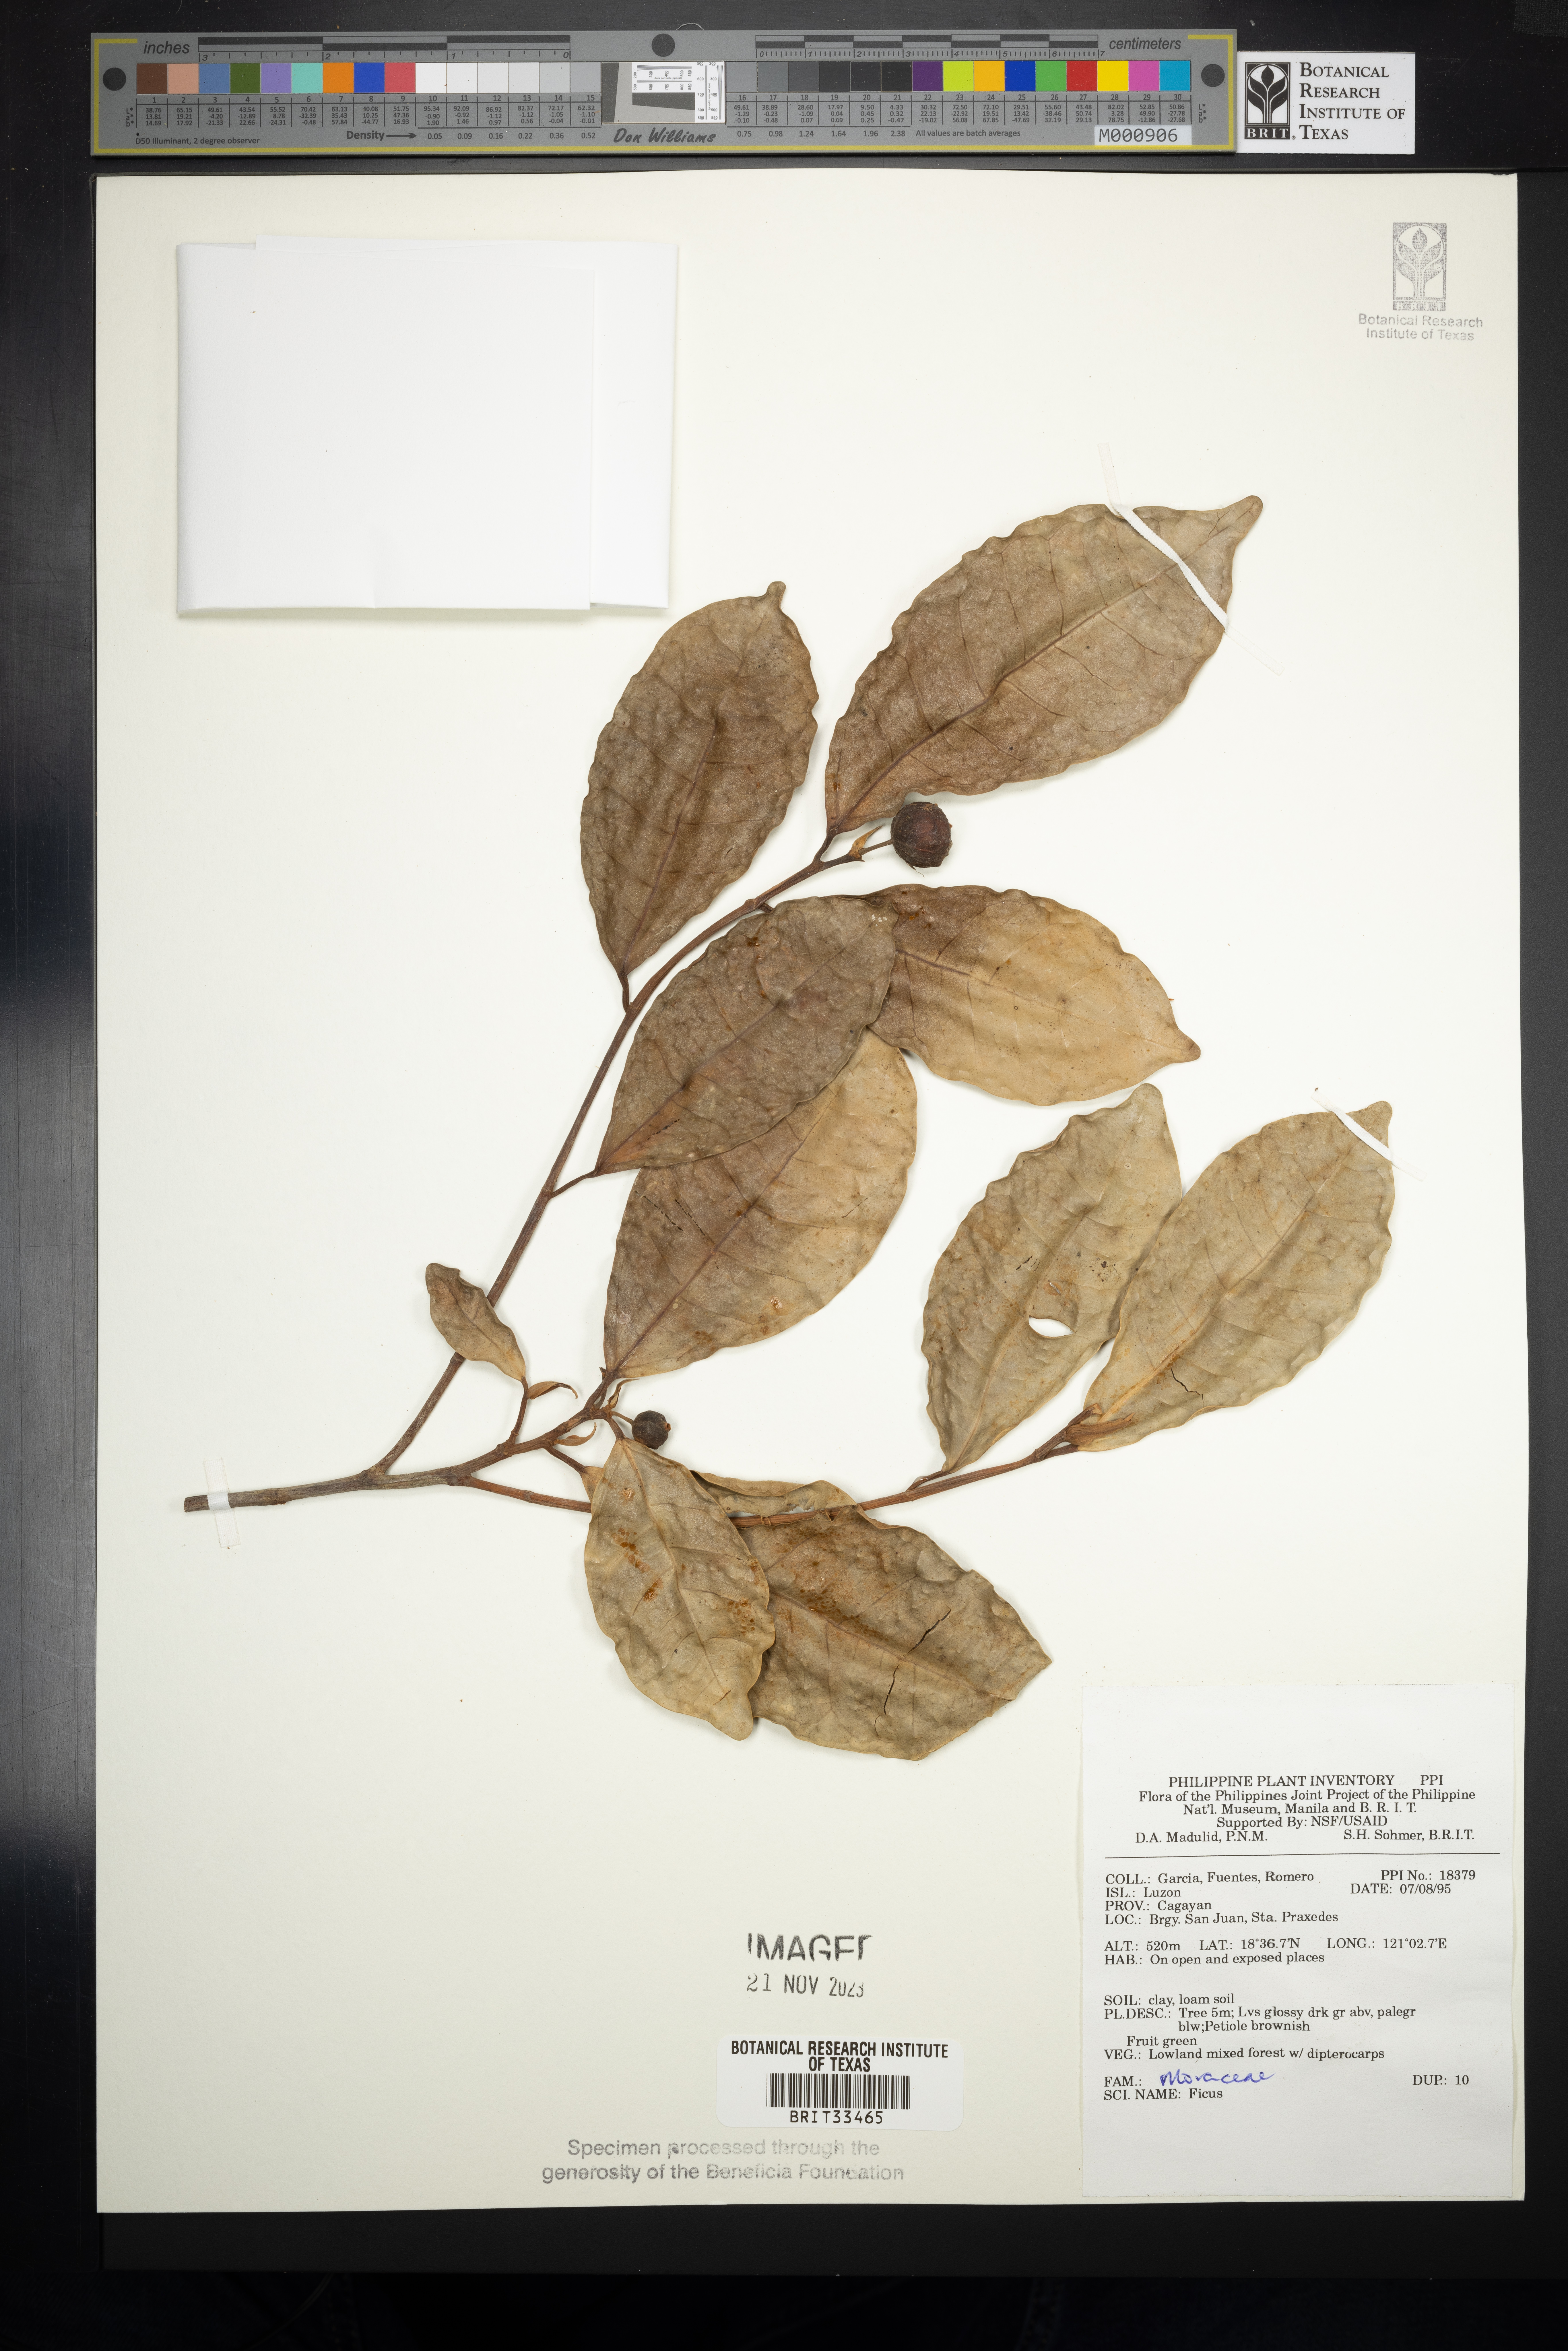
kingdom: Plantae
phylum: Tracheophyta
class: Magnoliopsida
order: Rosales
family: Moraceae
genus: Ficus
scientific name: Ficus
